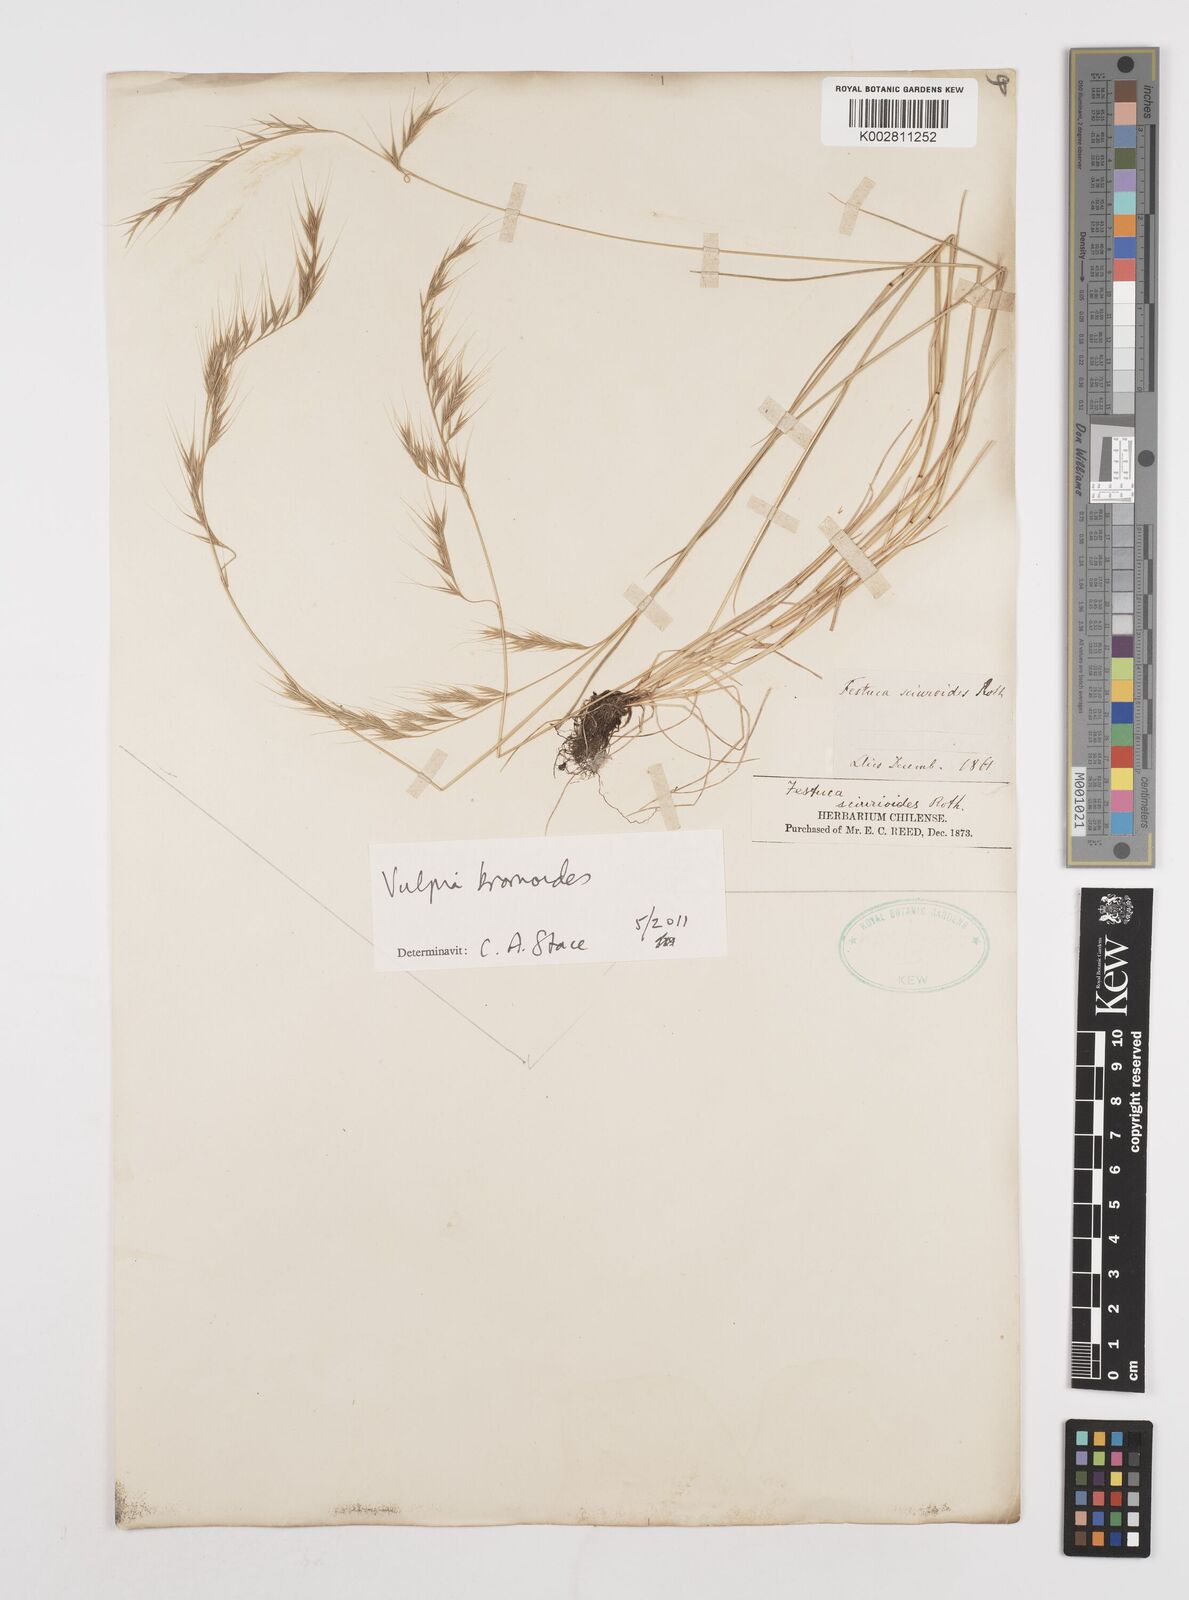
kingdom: Plantae
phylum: Tracheophyta
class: Liliopsida
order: Poales
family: Poaceae
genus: Festuca
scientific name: Festuca bromoides
